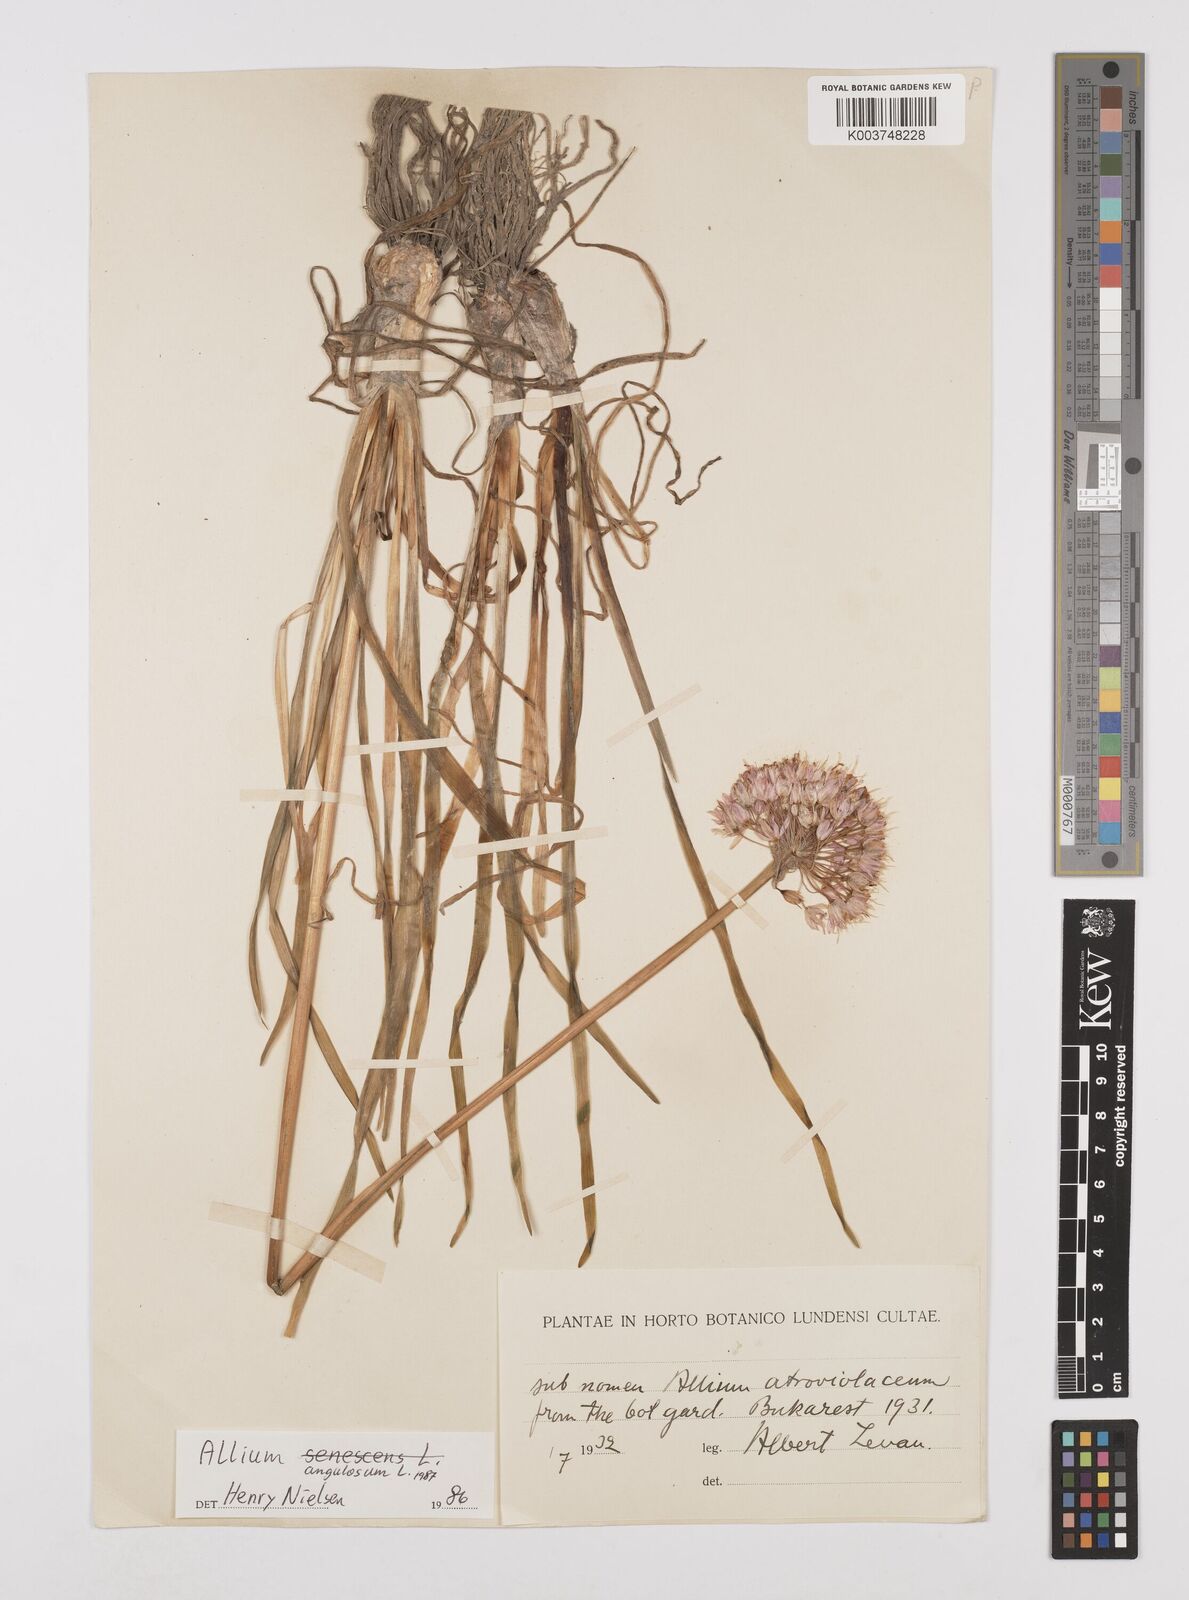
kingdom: Plantae
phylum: Tracheophyta
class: Liliopsida
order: Asparagales
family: Amaryllidaceae
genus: Allium
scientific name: Allium angulosum
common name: Mouse garlic
